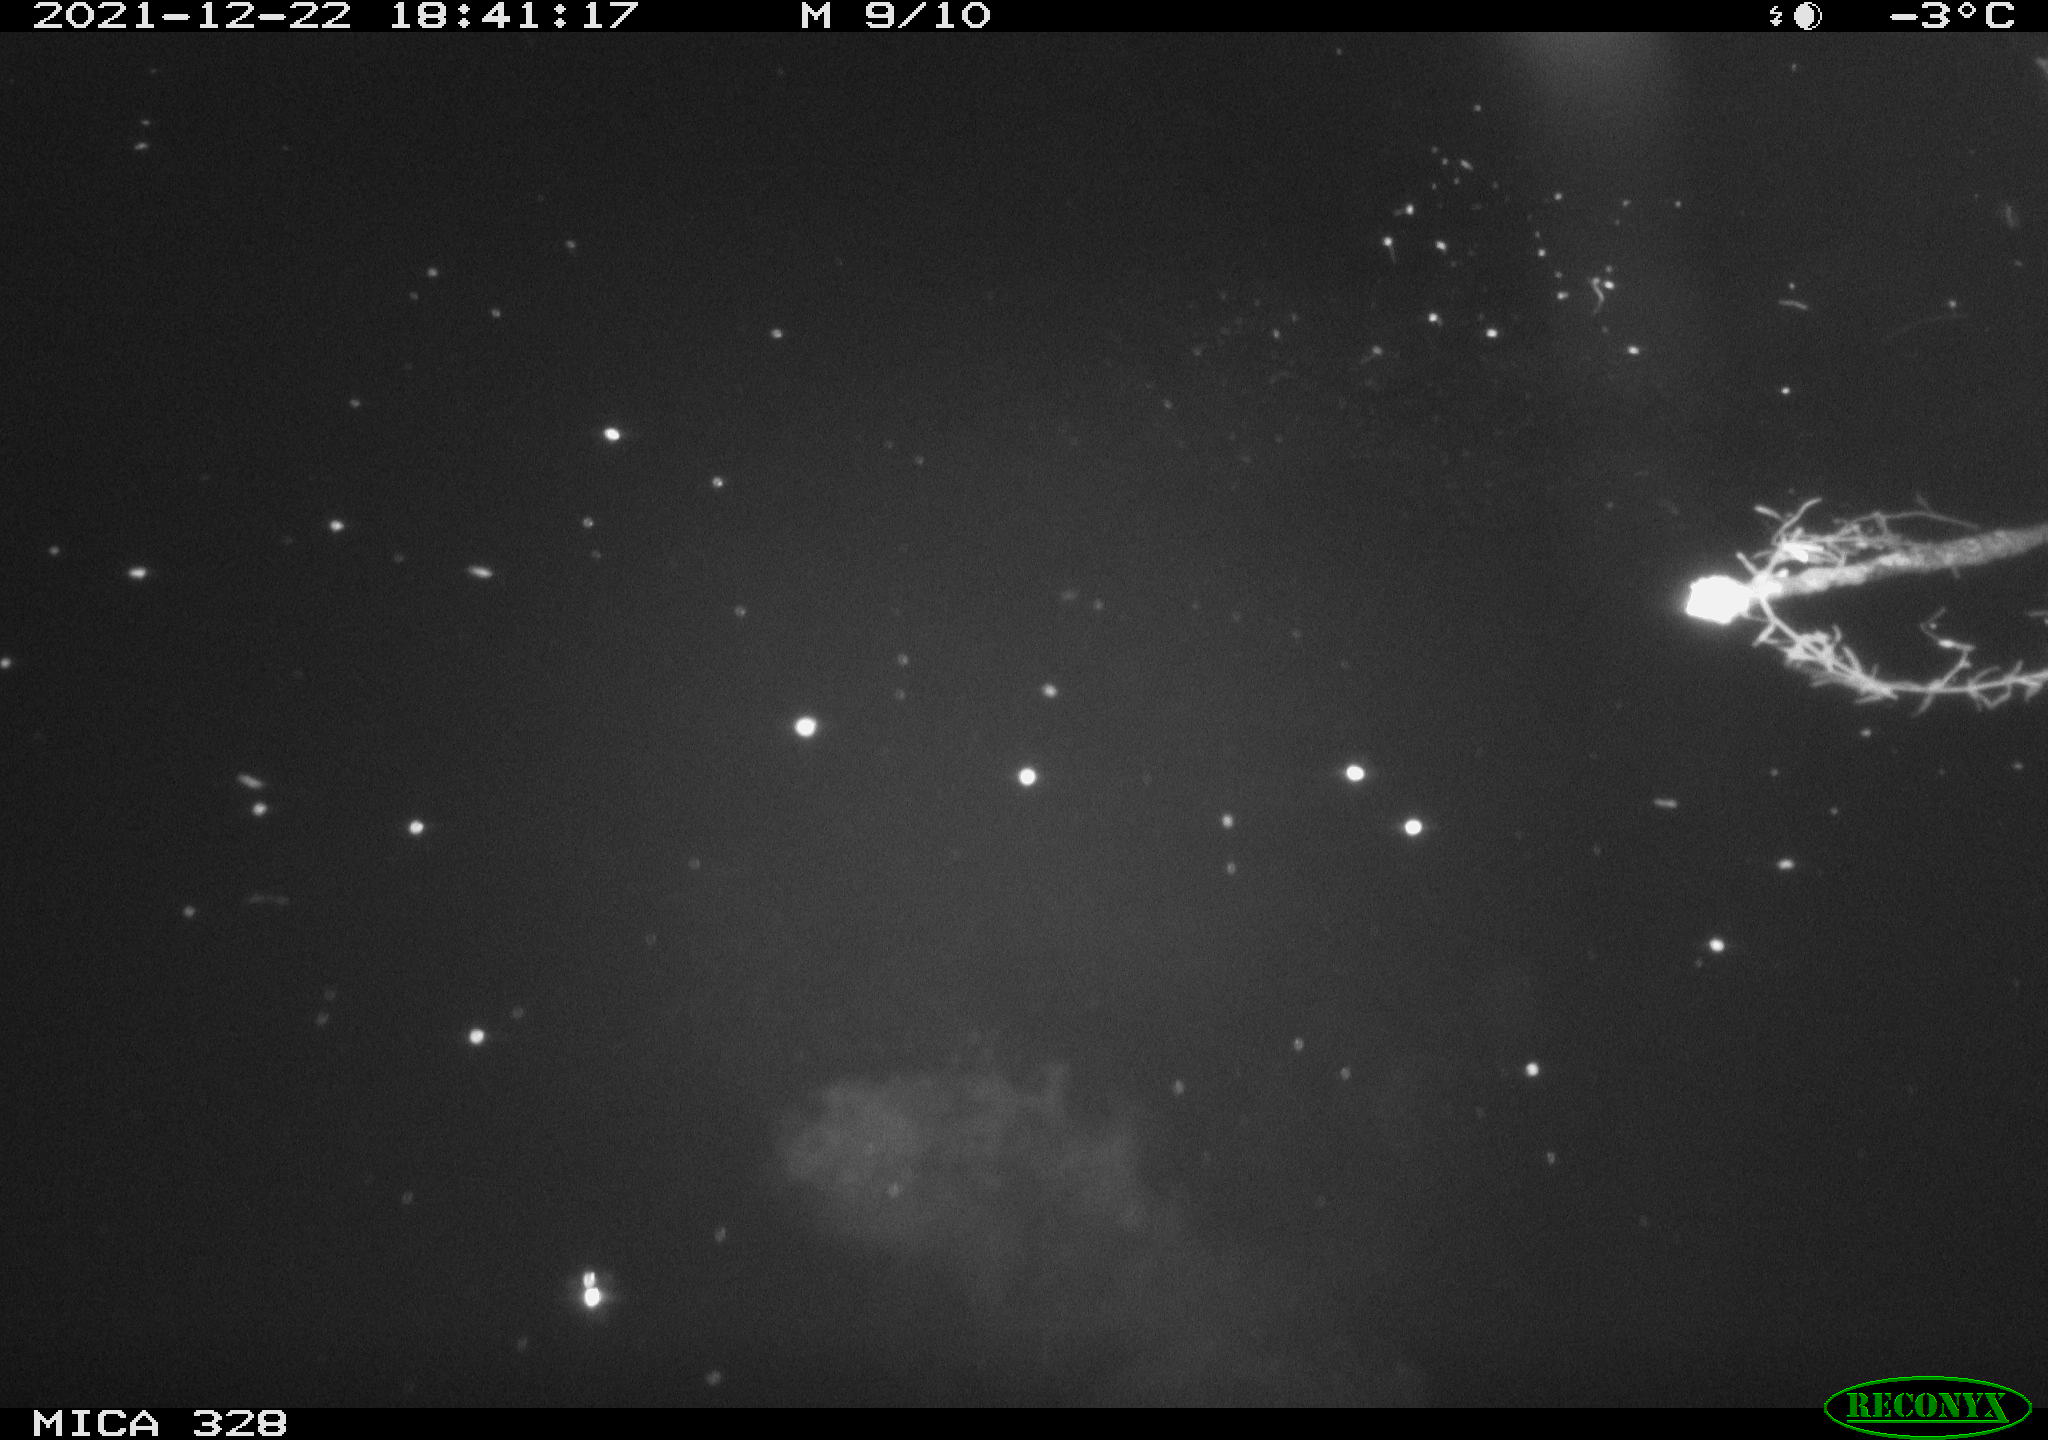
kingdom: Animalia
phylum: Chordata
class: Aves
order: Anseriformes
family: Anatidae
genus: Anas
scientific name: Anas platyrhynchos
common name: Mallard
